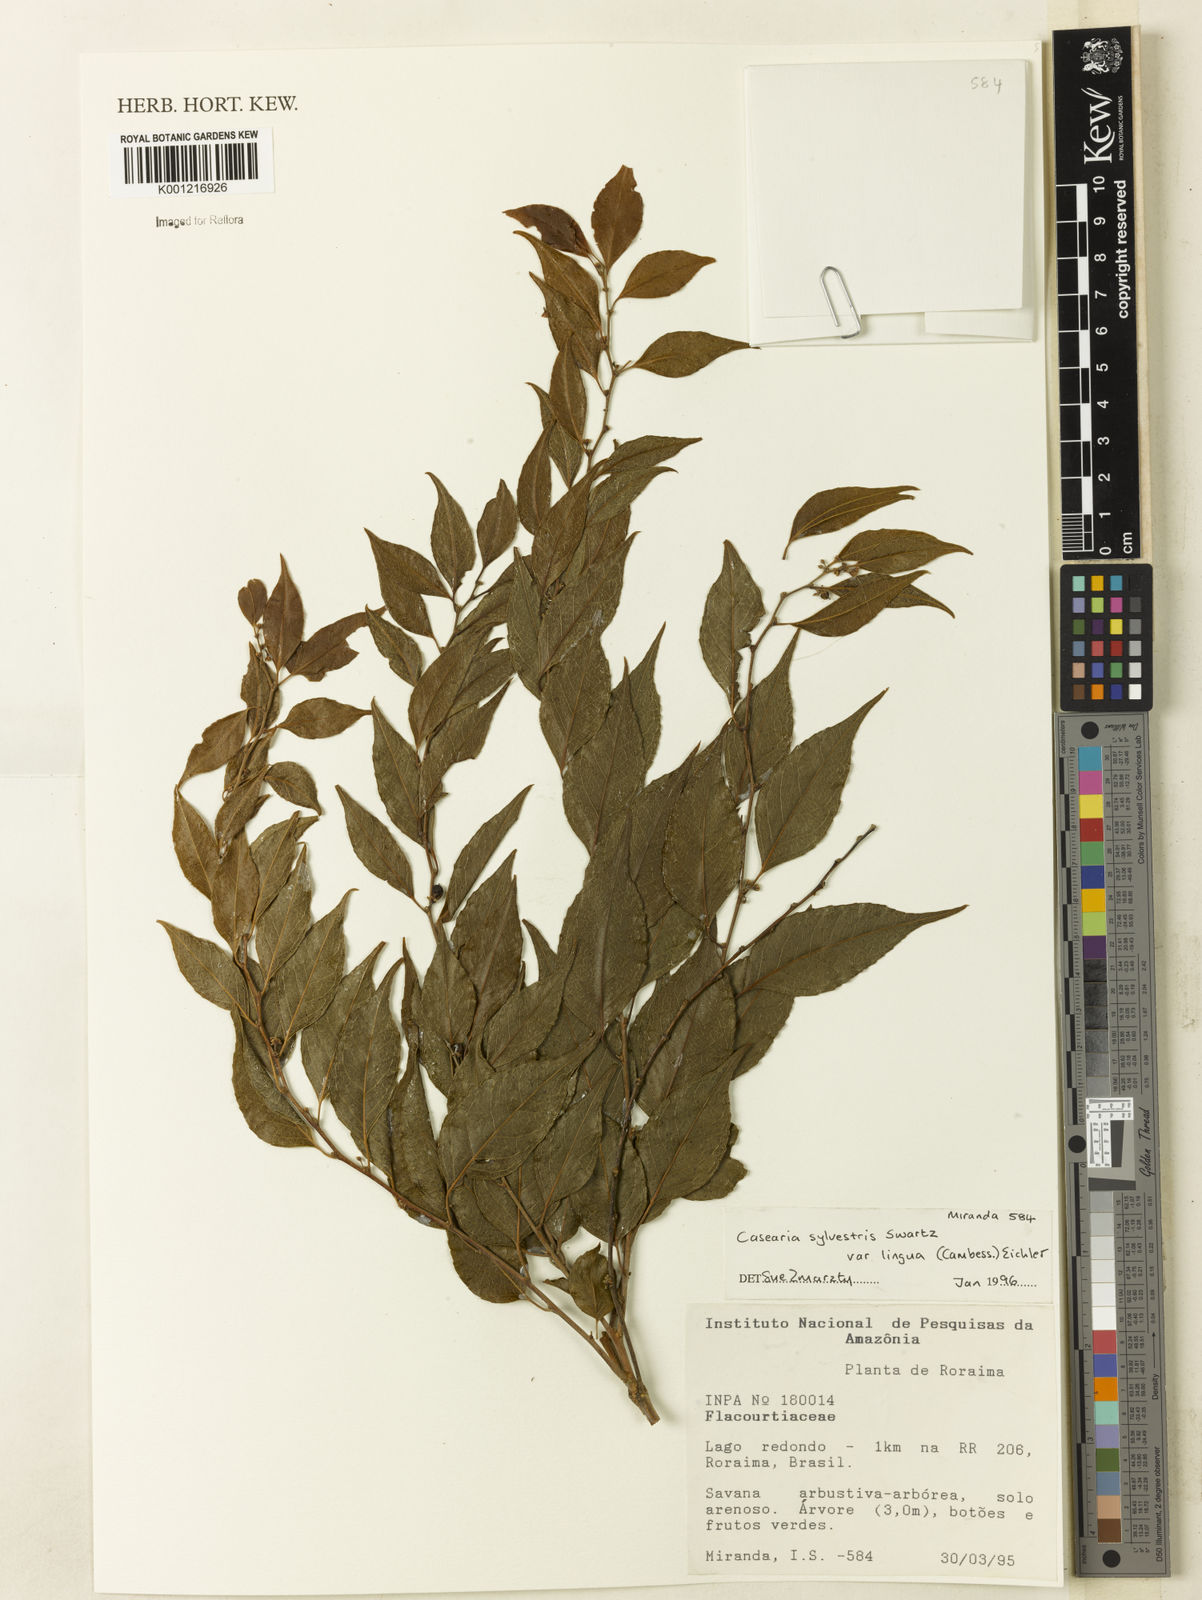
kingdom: Plantae
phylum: Tracheophyta
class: Magnoliopsida
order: Malpighiales
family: Salicaceae
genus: Casearia
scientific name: Casearia sylvestris
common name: Wild sage
